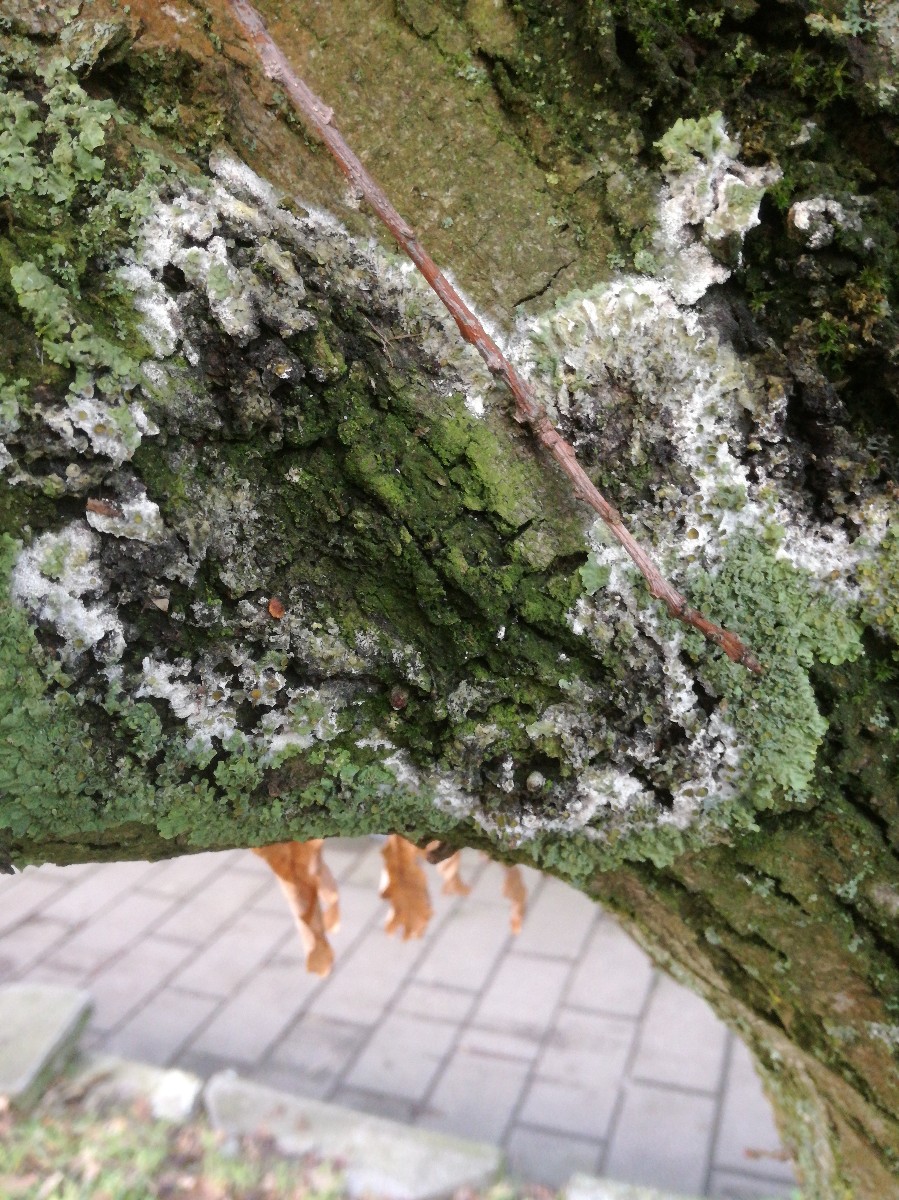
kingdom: Fungi
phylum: Basidiomycota
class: Agaricomycetes
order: Atheliales
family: Atheliaceae
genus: Athelia
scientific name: Athelia arachnoidea
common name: randet barkhinde
